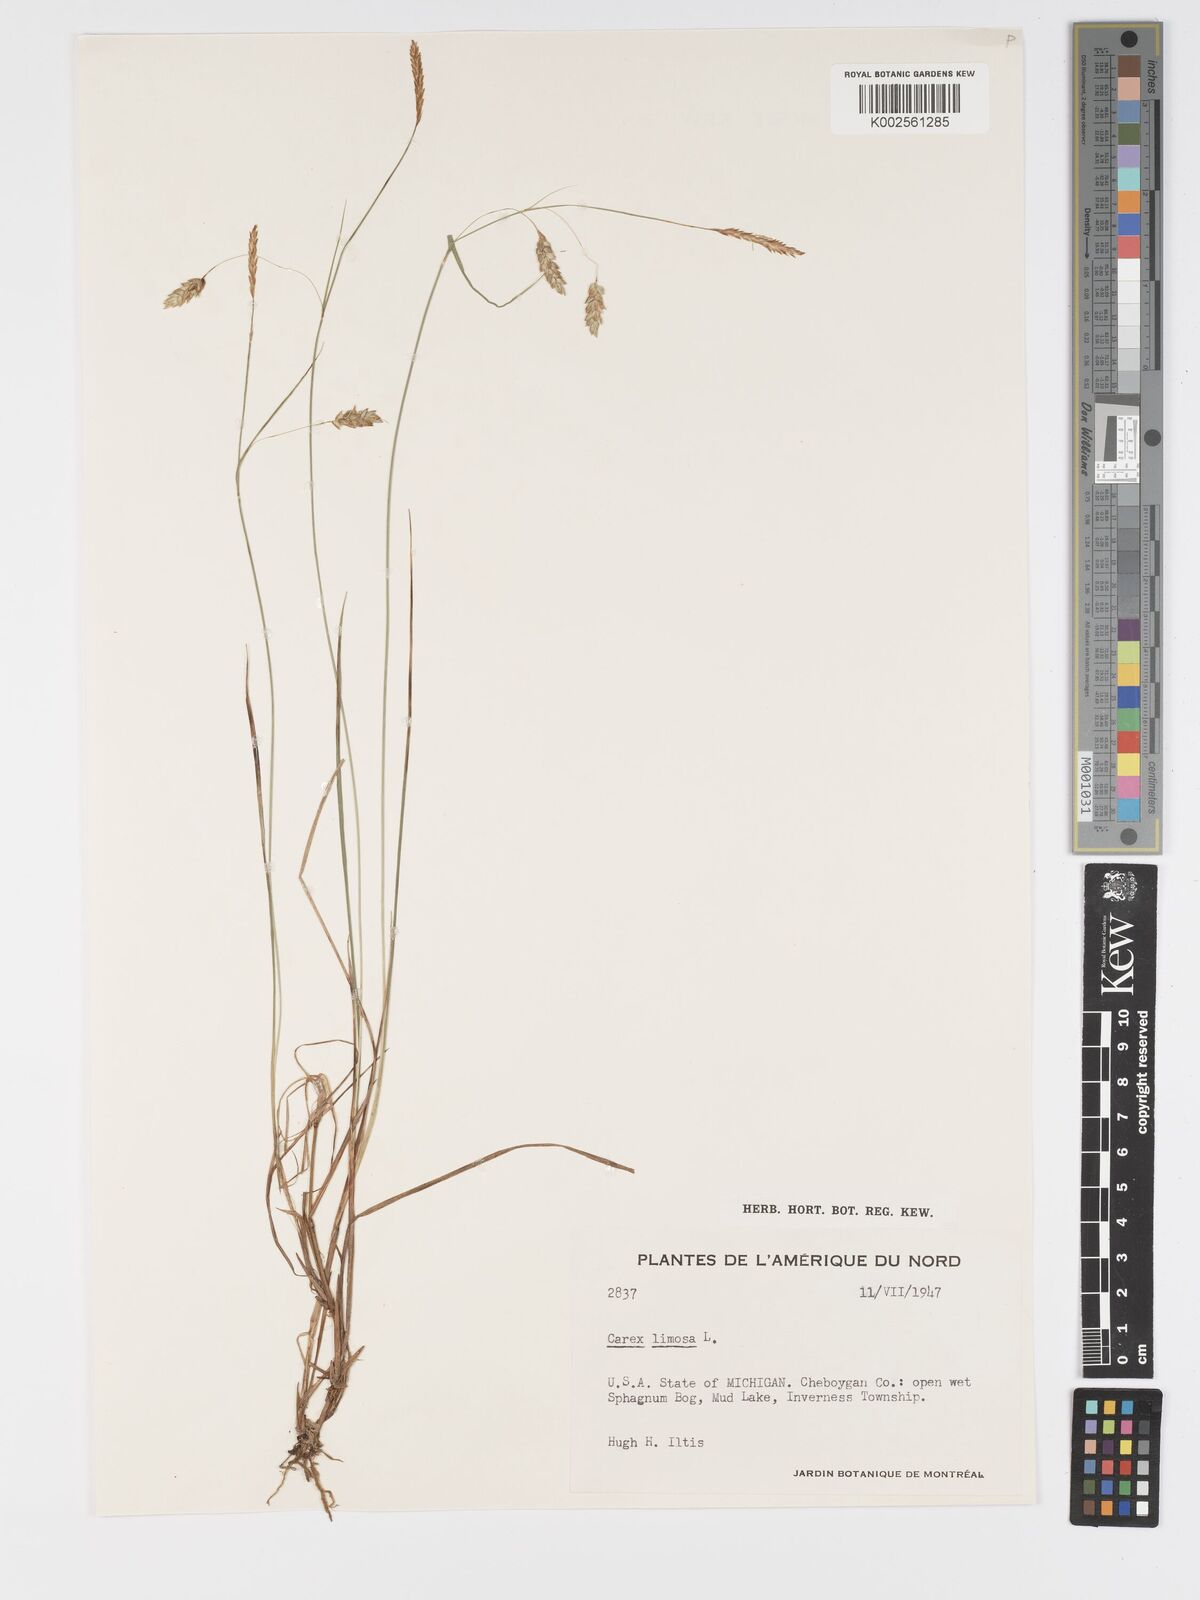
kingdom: Plantae
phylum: Tracheophyta
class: Liliopsida
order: Poales
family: Cyperaceae
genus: Carex
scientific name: Carex limosa
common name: Bog sedge
